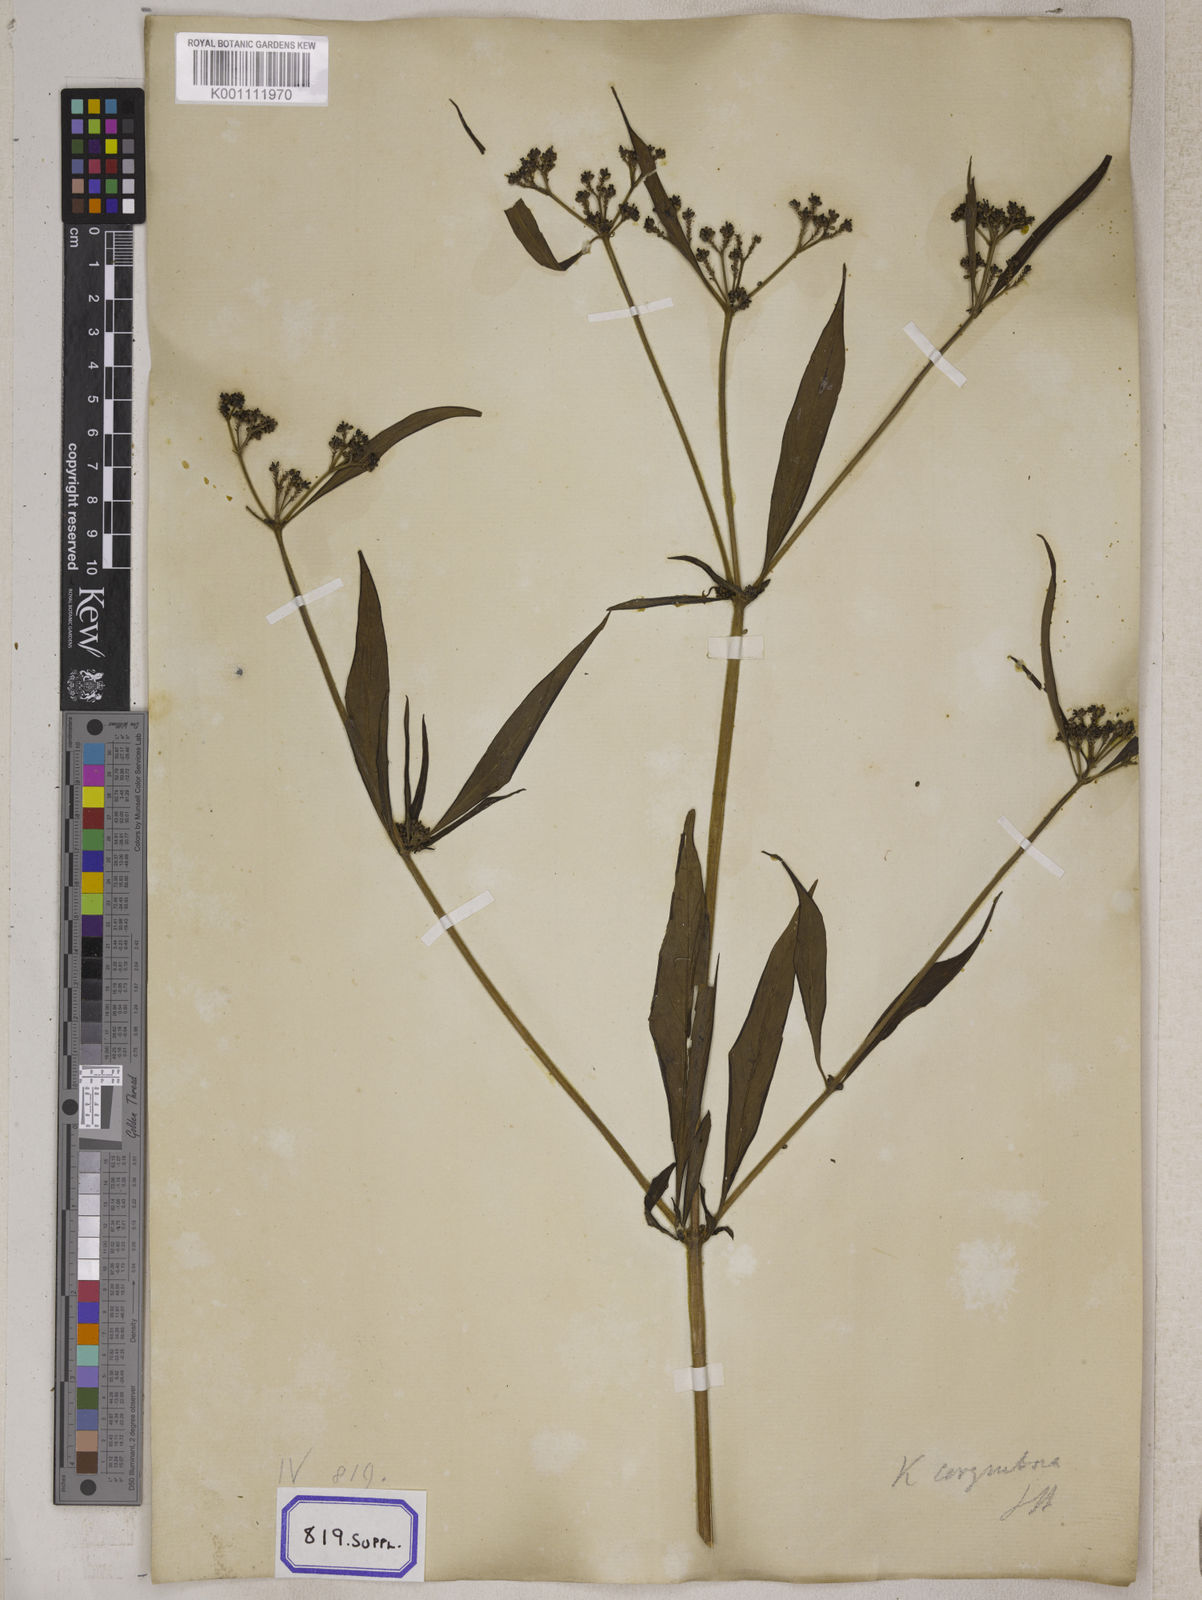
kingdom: Plantae
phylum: Tracheophyta
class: Magnoliopsida
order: Gentianales
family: Rubiaceae
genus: Knoxia
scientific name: Knoxia sumatrensis
